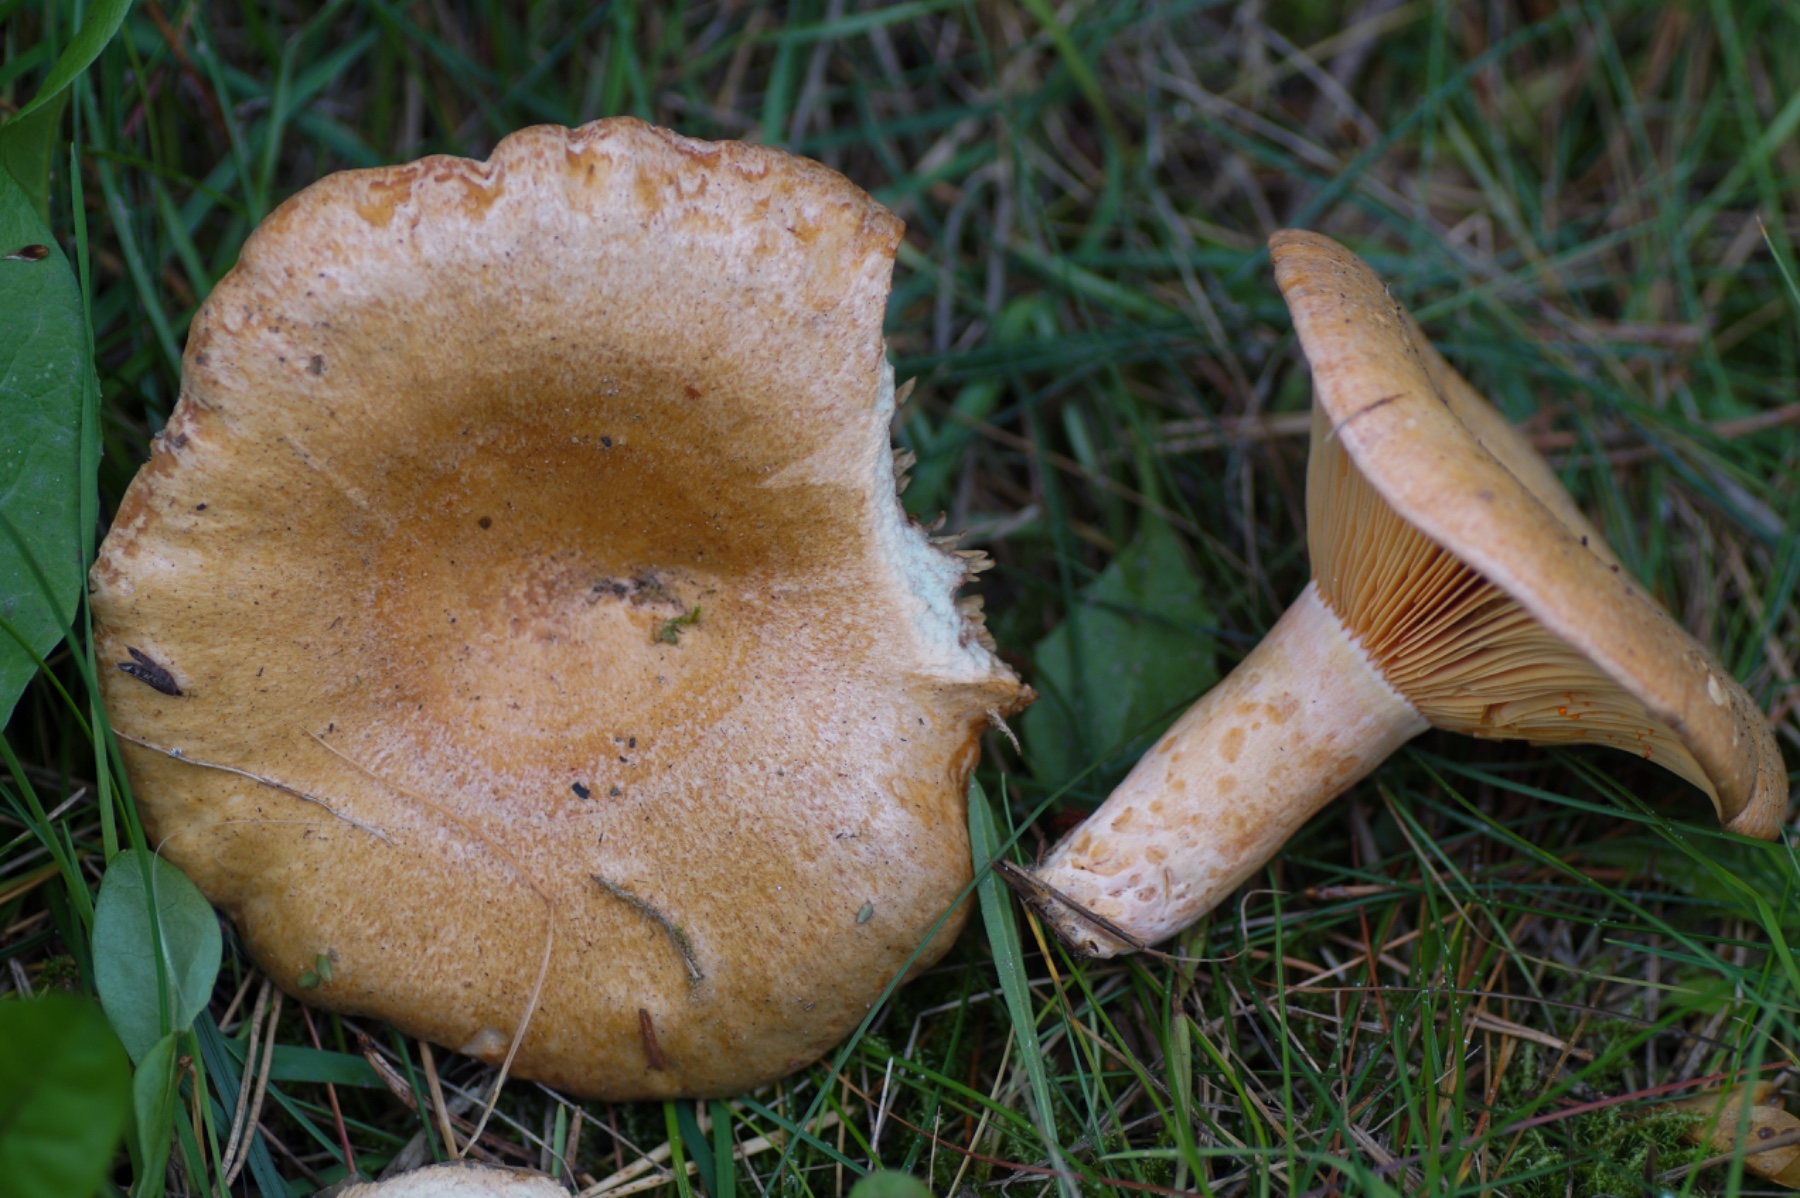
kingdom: Fungi
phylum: Basidiomycota
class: Agaricomycetes
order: Russulales
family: Russulaceae
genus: Lactarius
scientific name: Lactarius deliciosus
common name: velsmagende mælkehat
